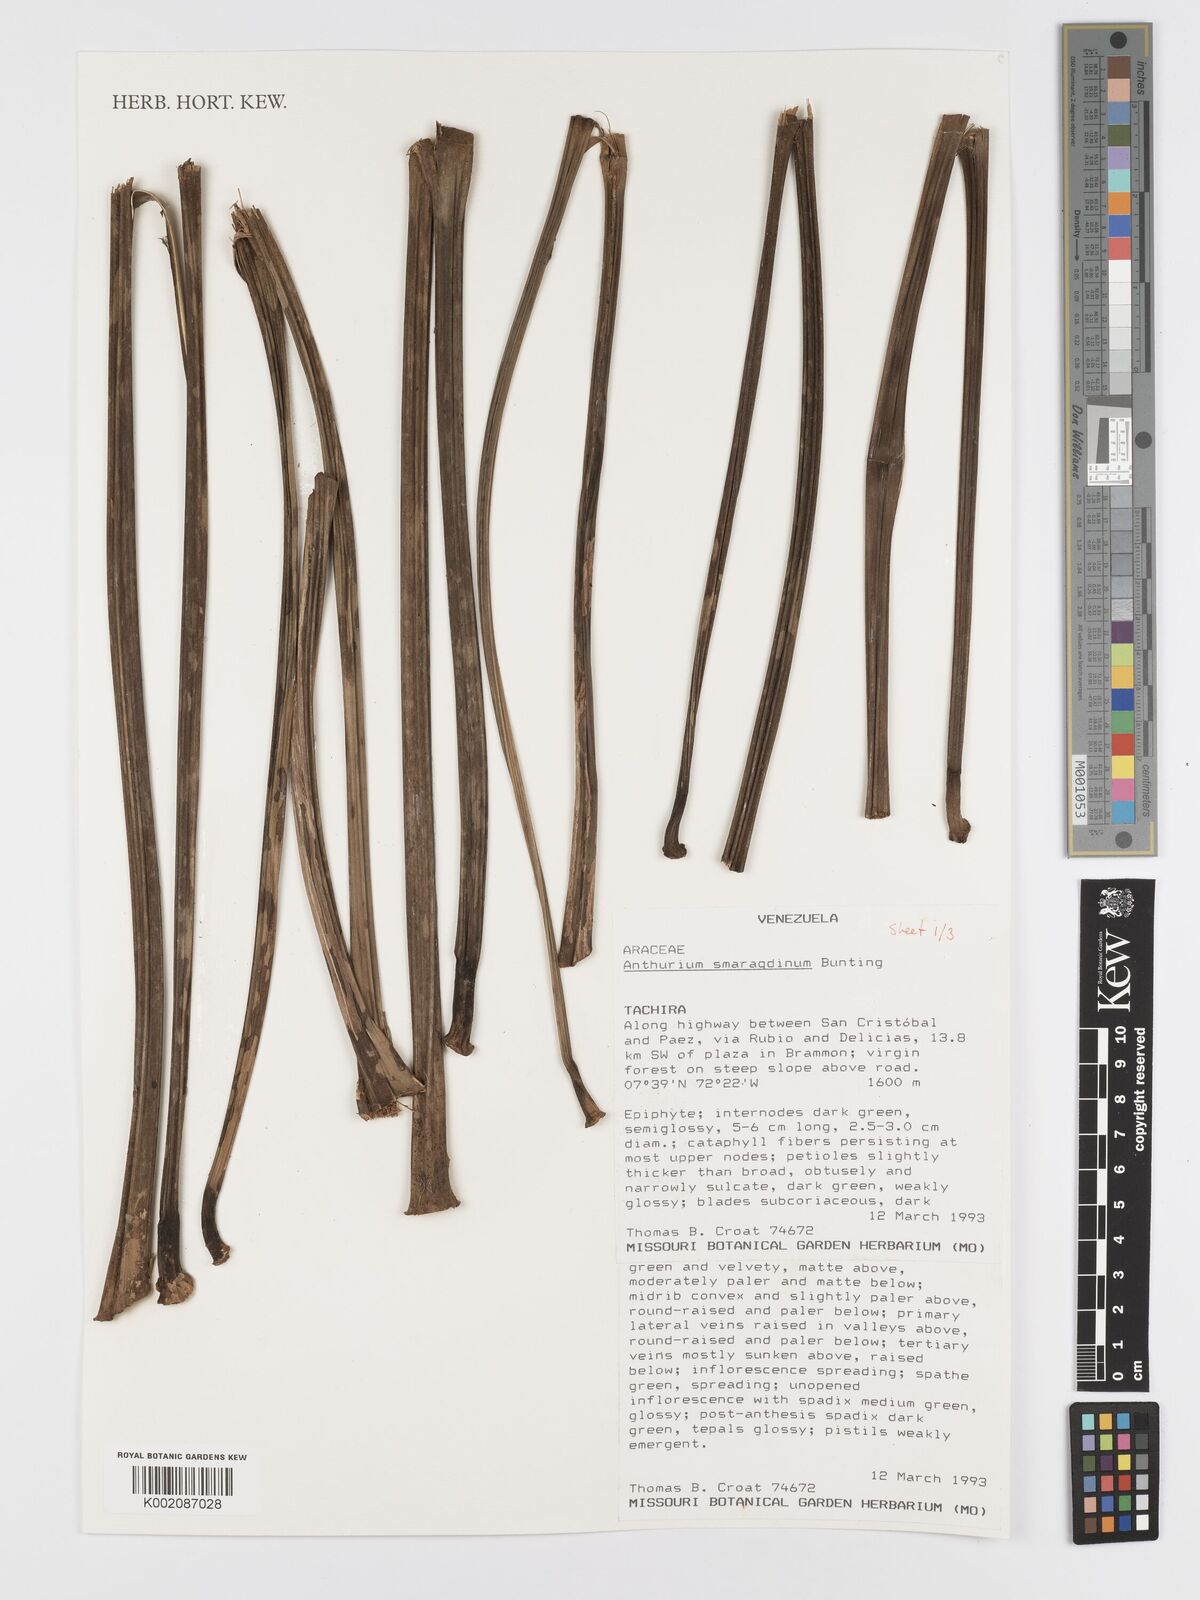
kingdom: Plantae
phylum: Tracheophyta
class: Liliopsida
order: Alismatales
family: Araceae
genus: Anthurium
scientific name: Anthurium smaragdinum
